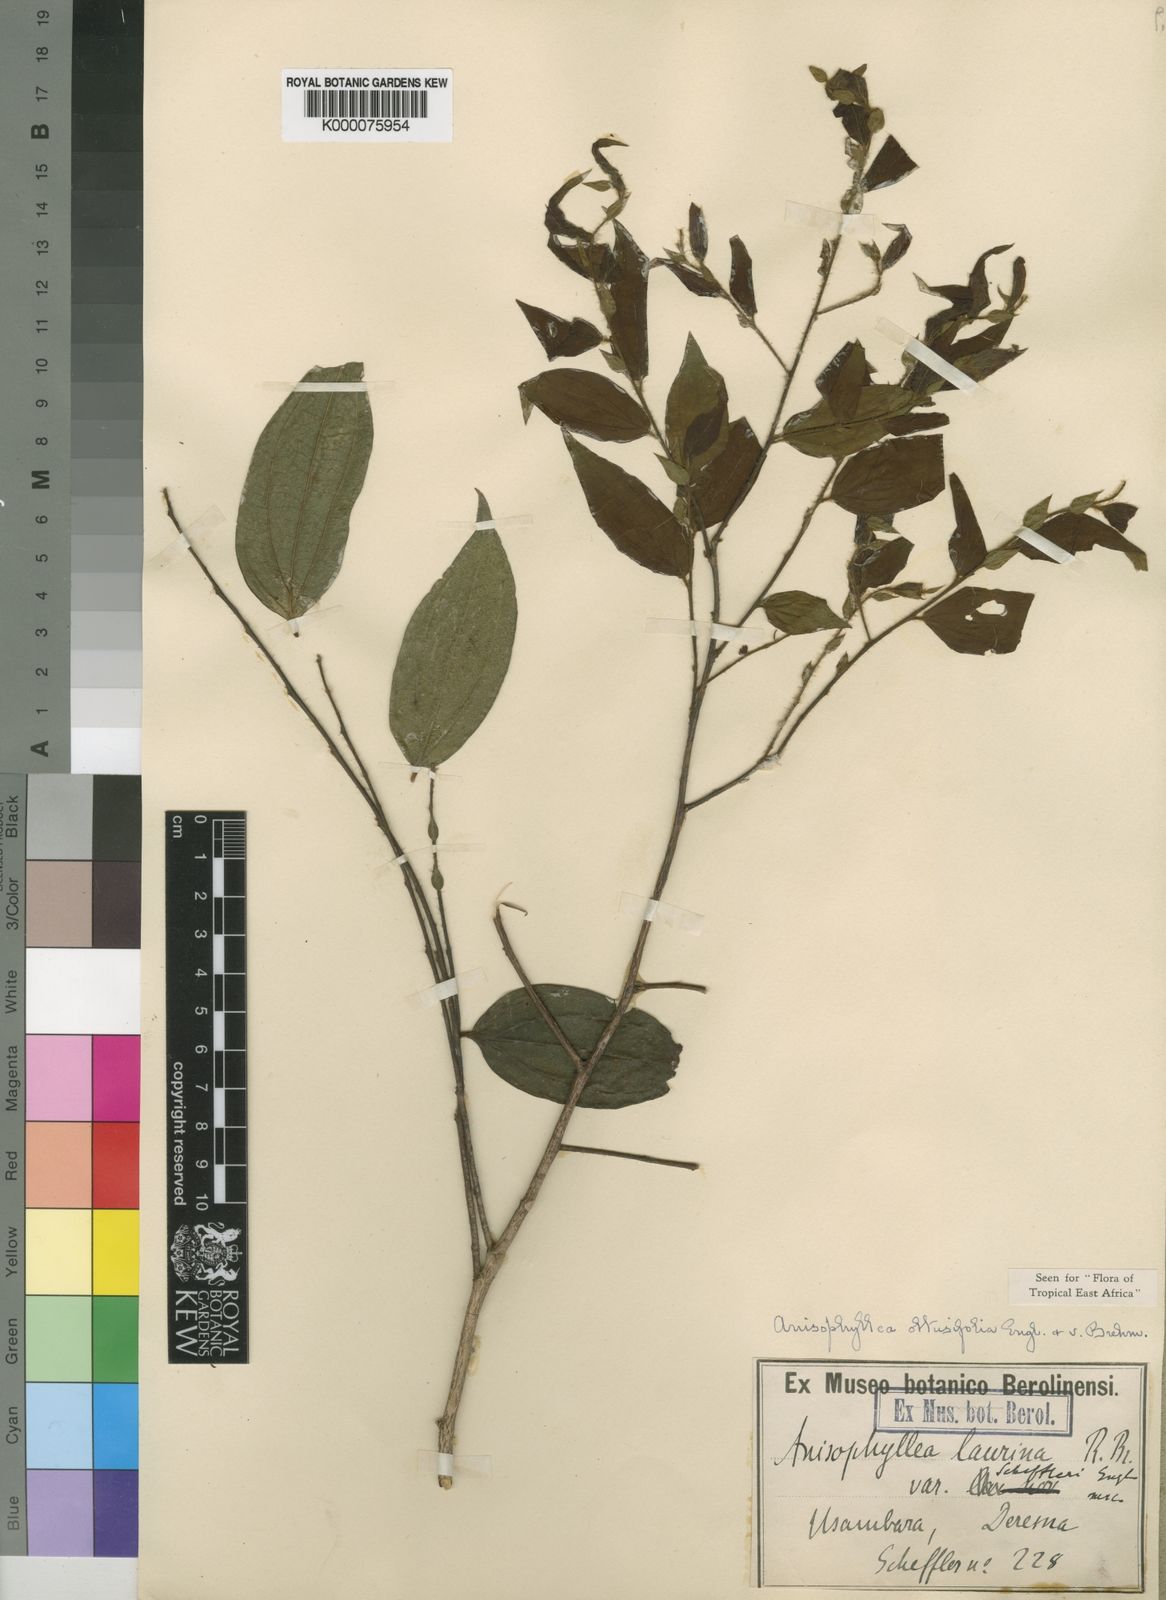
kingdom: Plantae
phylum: Tracheophyta
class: Magnoliopsida
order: Cucurbitales
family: Anisophylleaceae
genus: Anisophyllea
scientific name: Anisophyllea obtusifolia
